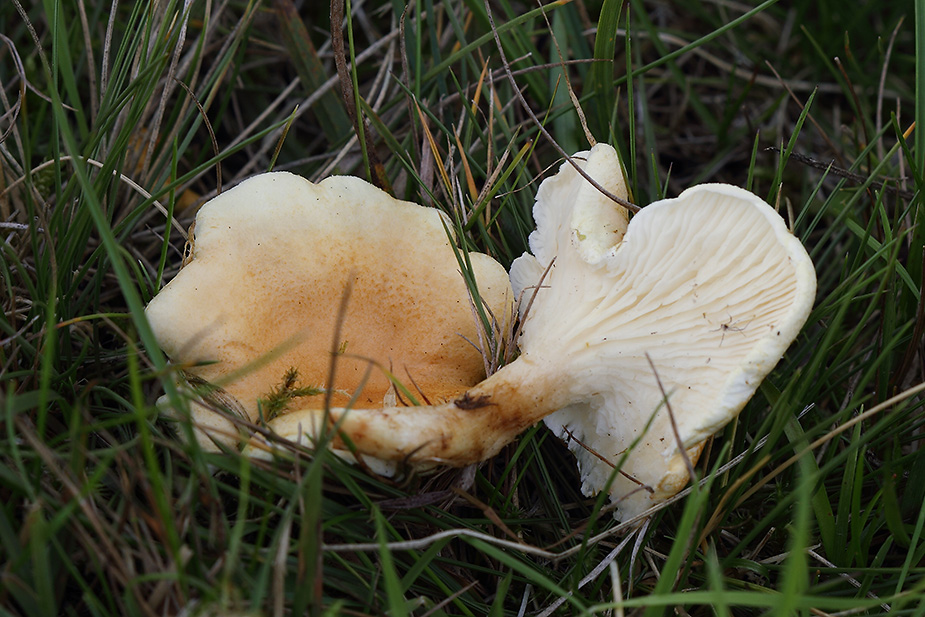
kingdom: Fungi
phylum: Basidiomycota
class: Agaricomycetes
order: Boletales
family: Hygrophoropsidaceae
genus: Hygrophoropsis
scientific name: Hygrophoropsis pallida
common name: bleg orangekantarel
